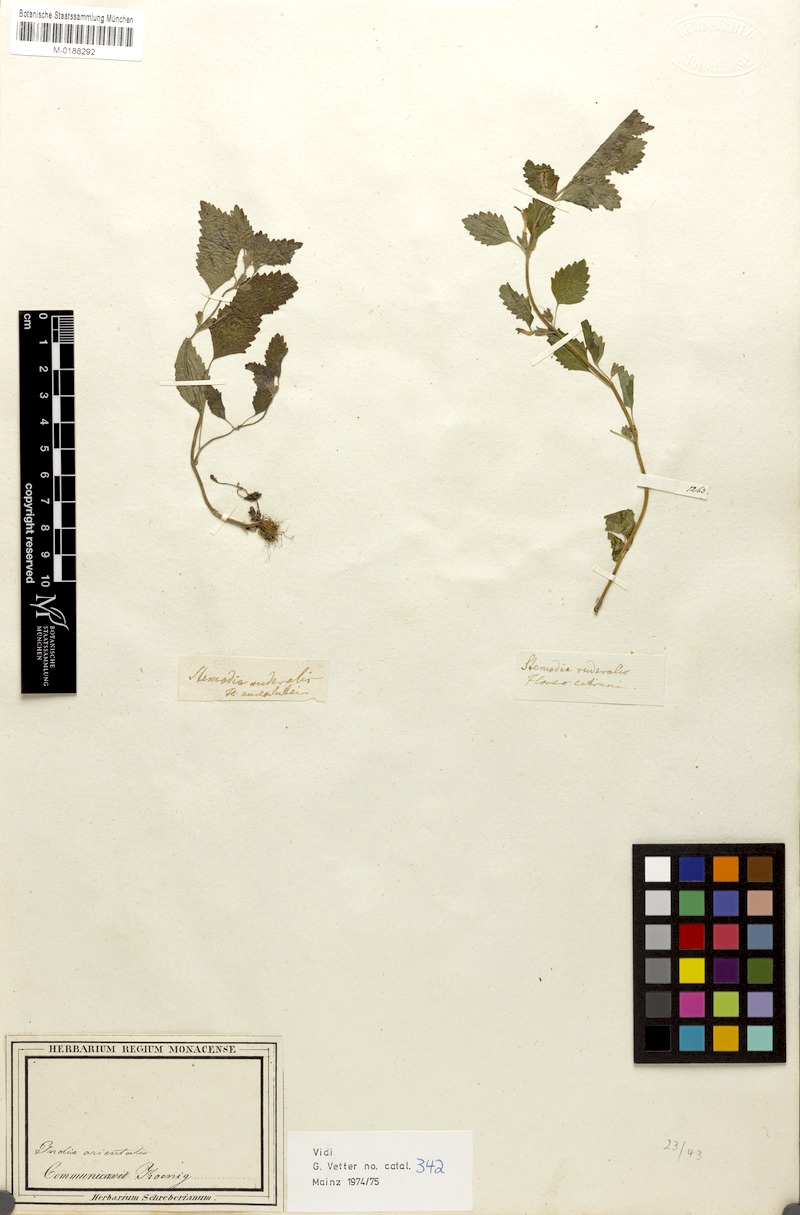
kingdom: Plantae
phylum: Tracheophyta
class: Magnoliopsida
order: Lamiales
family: Orobanchaceae
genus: Lindenbergia
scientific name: Lindenbergia urticifolia
